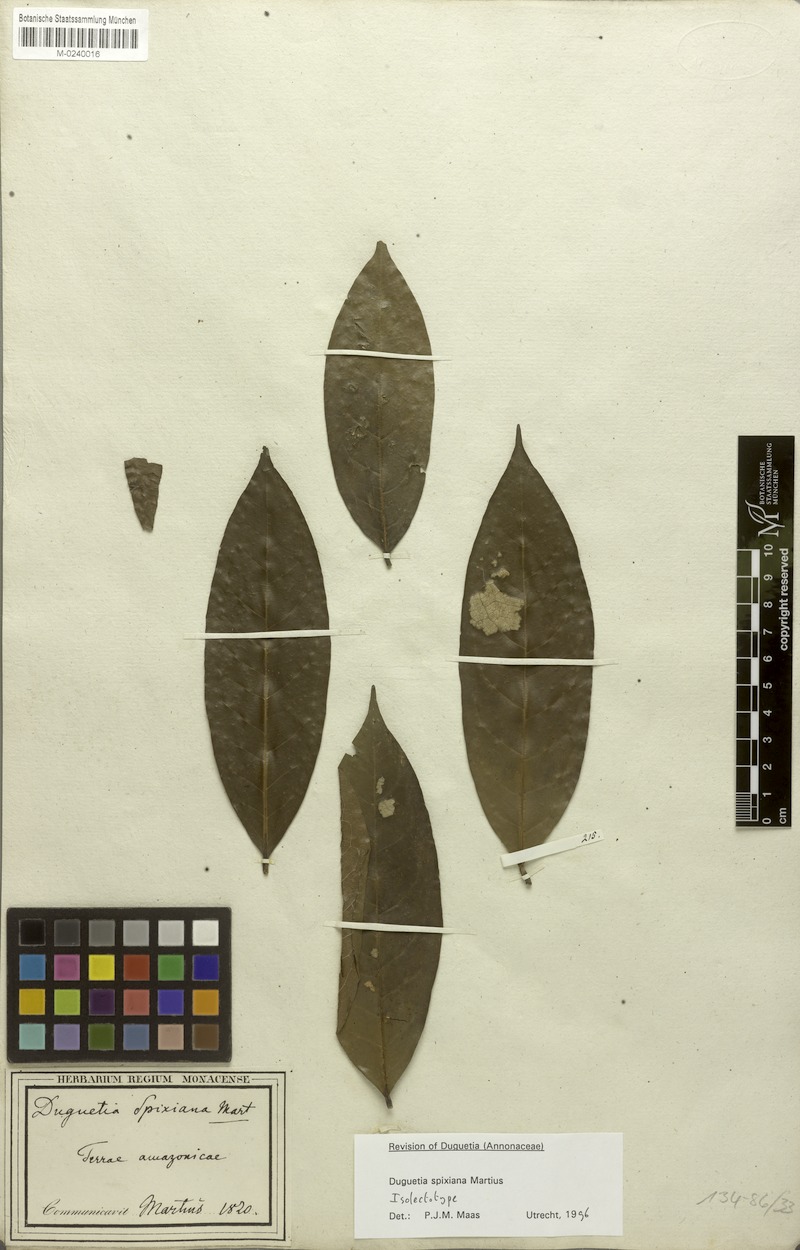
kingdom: Plantae
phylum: Tracheophyta
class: Magnoliopsida
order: Magnoliales
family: Annonaceae
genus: Duguetia
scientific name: Duguetia spixiana
